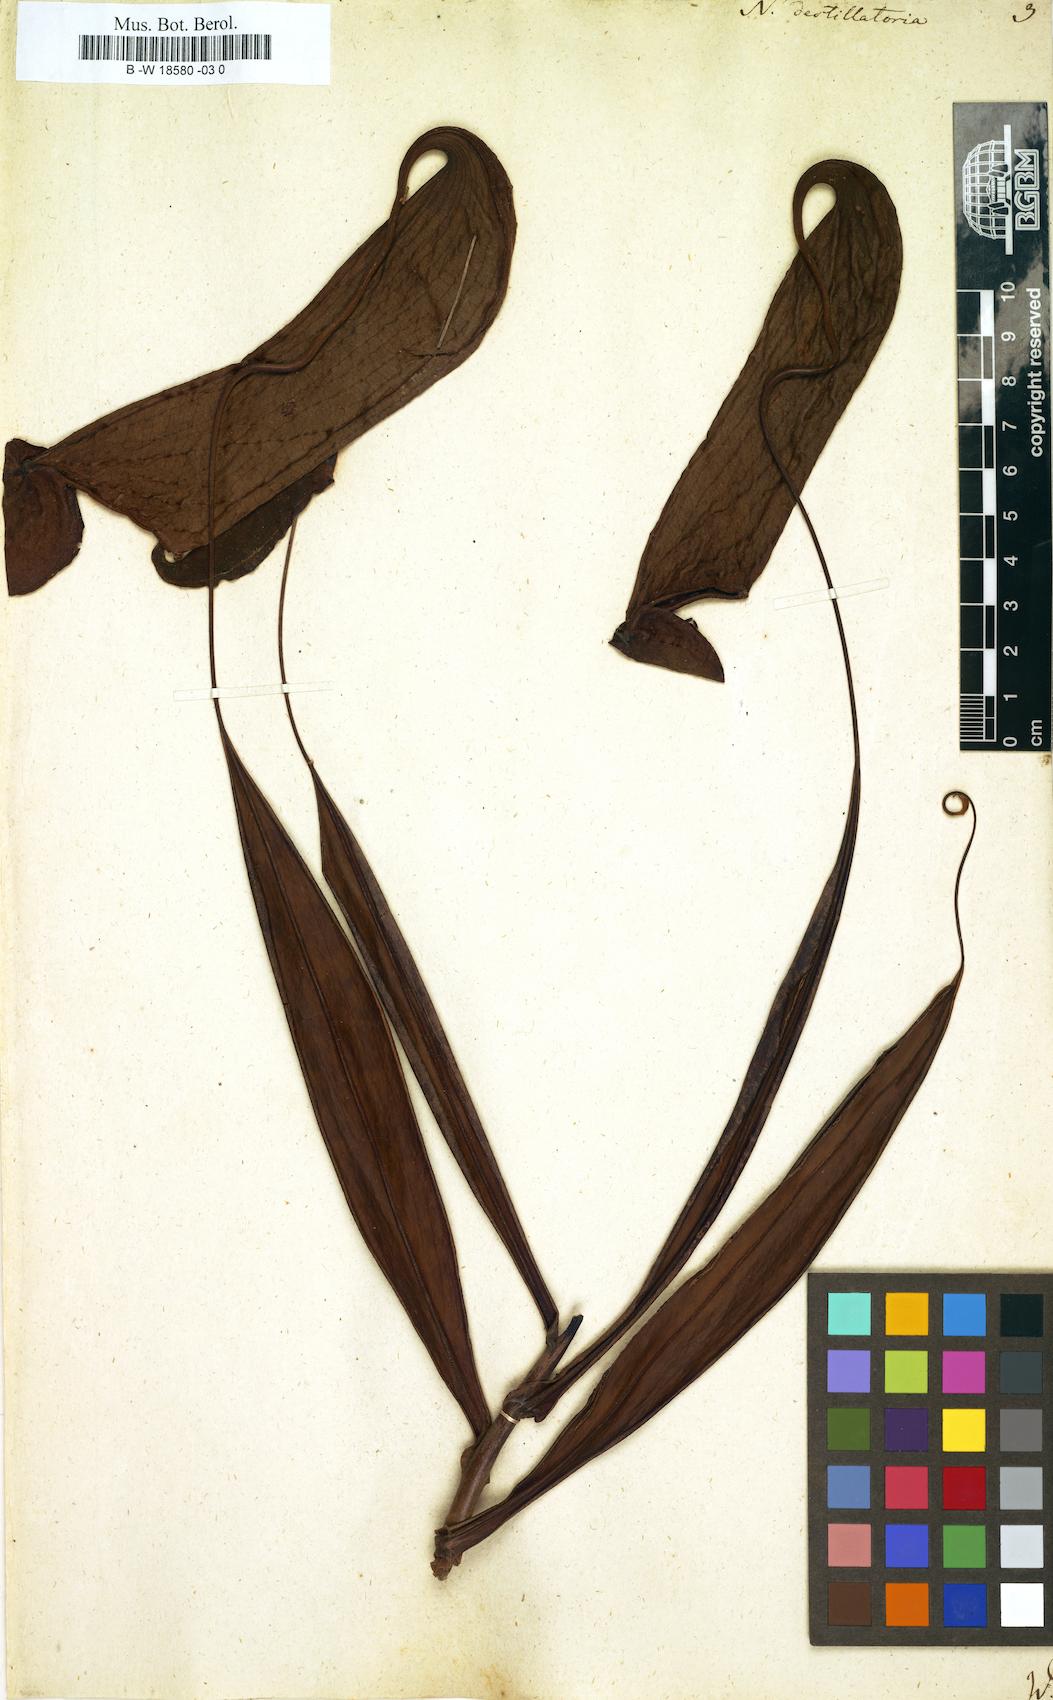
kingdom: Plantae
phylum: Tracheophyta
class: Magnoliopsida
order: Caryophyllales
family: Nepenthaceae
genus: Nepenthes
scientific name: Nepenthes distillatoria
